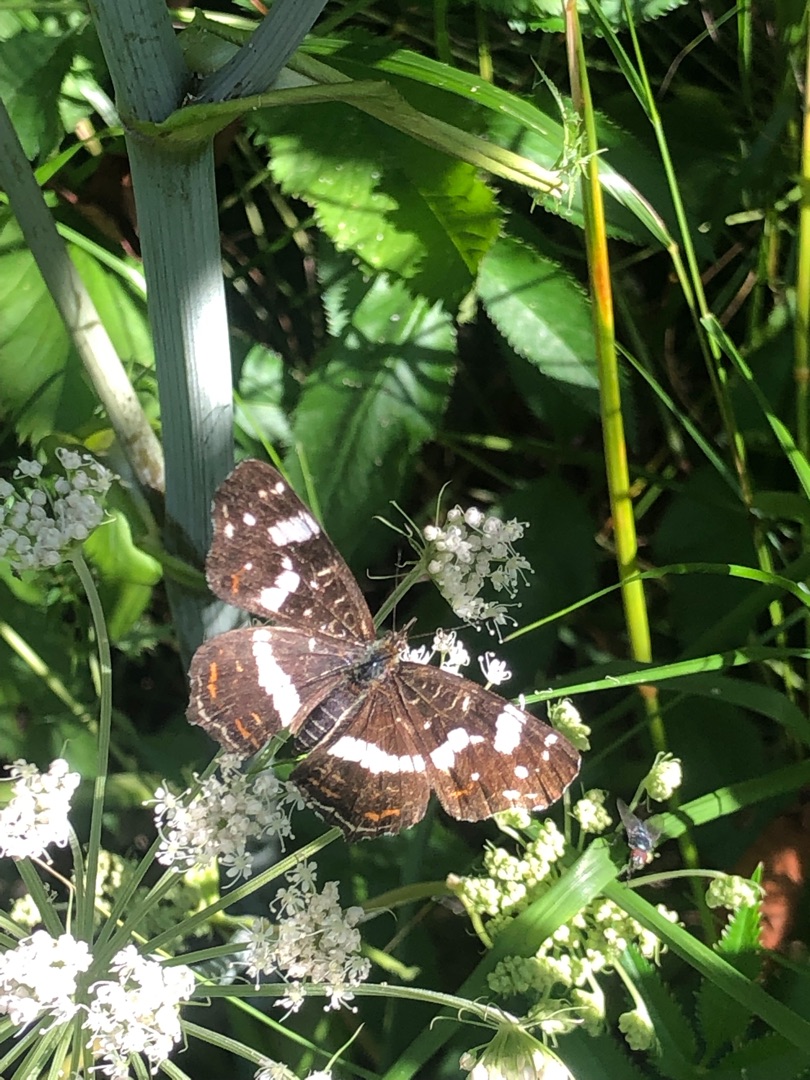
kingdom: Animalia
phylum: Arthropoda
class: Insecta
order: Lepidoptera
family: Nymphalidae
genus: Araschnia
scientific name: Araschnia levana
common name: Nældesommerfugl
